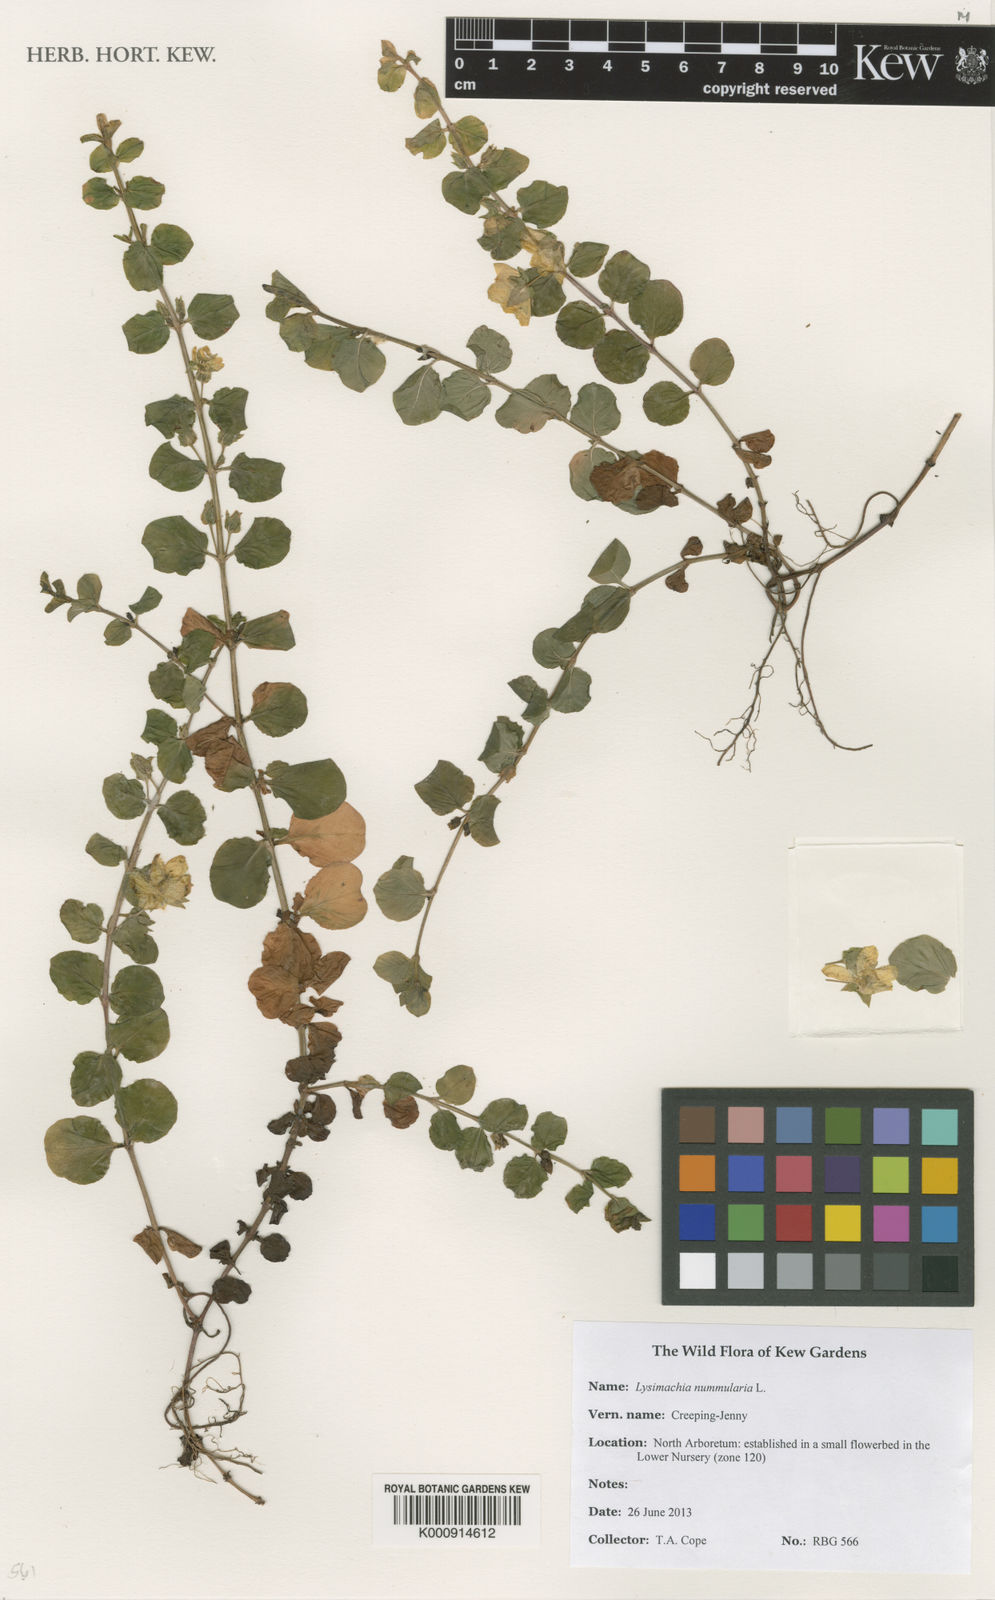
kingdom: Plantae
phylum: Tracheophyta
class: Magnoliopsida
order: Ericales
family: Primulaceae
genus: Lysimachia
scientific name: Lysimachia nummularia
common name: Moneywort
